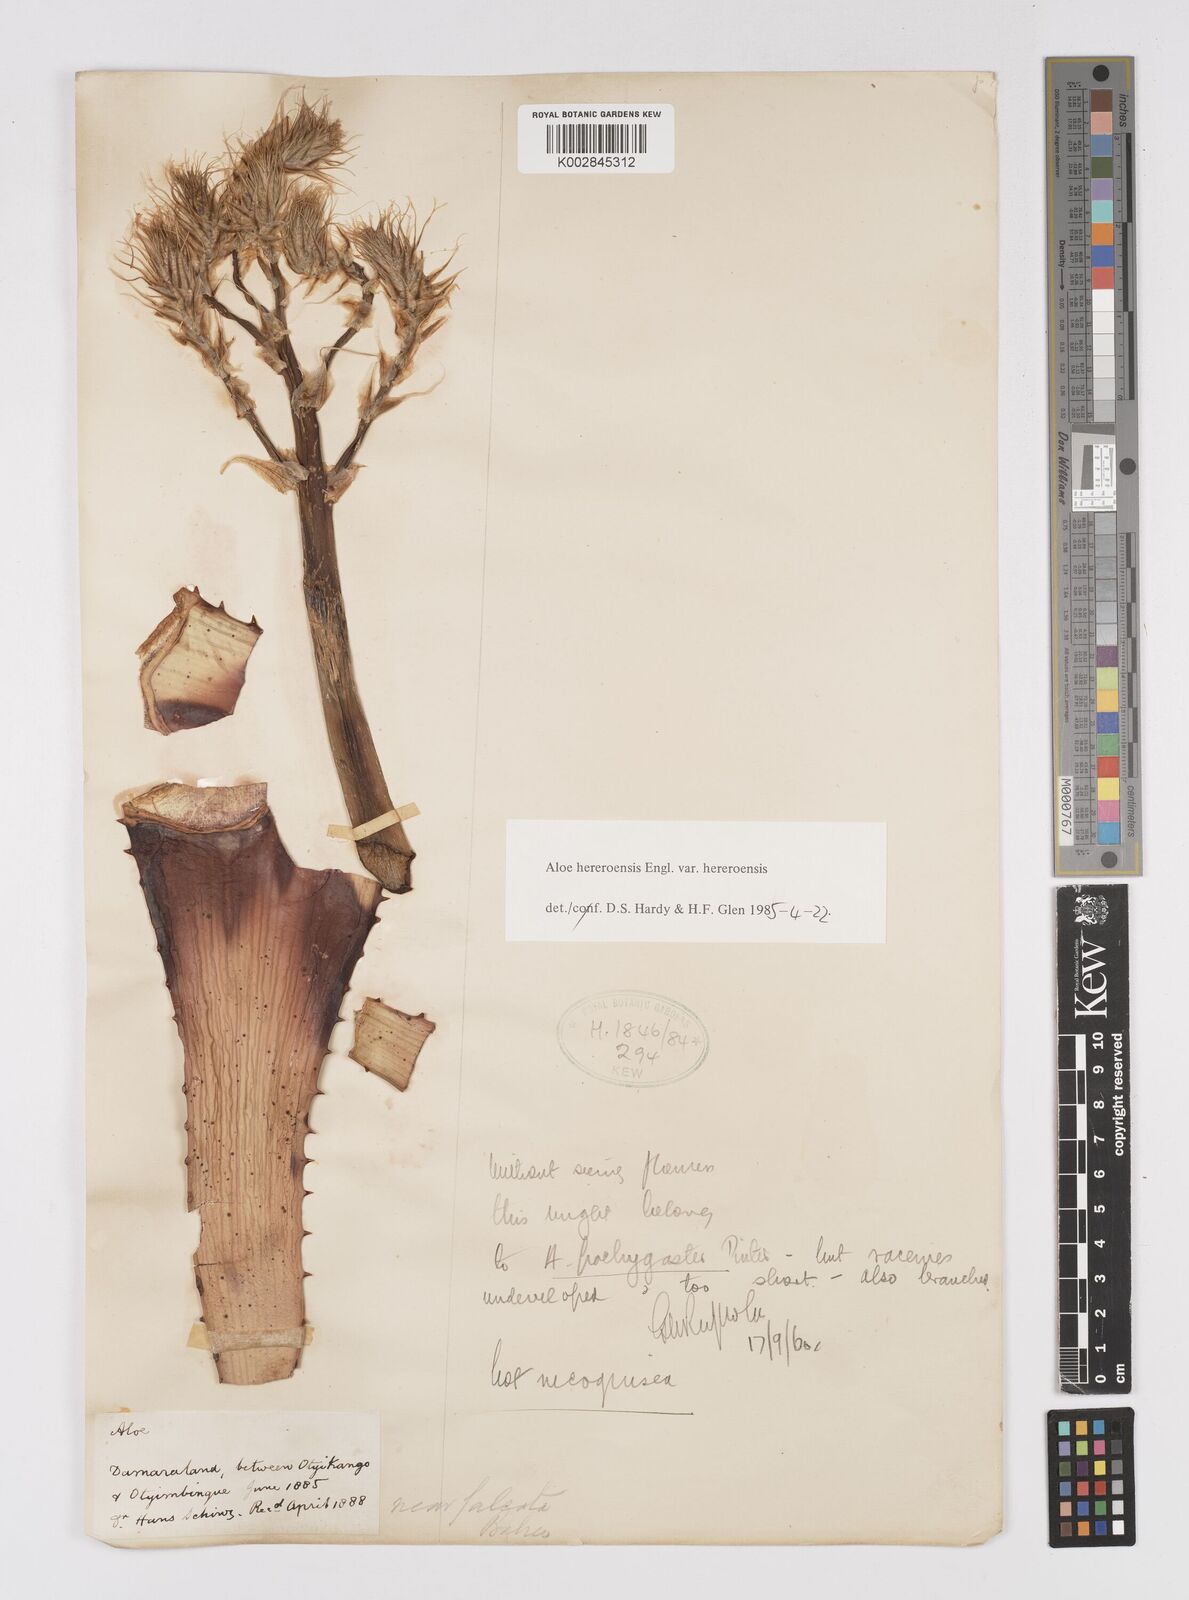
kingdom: Plantae
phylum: Tracheophyta
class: Liliopsida
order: Asparagales
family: Asphodelaceae
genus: Aloe
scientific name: Aloe hereroensis
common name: Herero aloe
